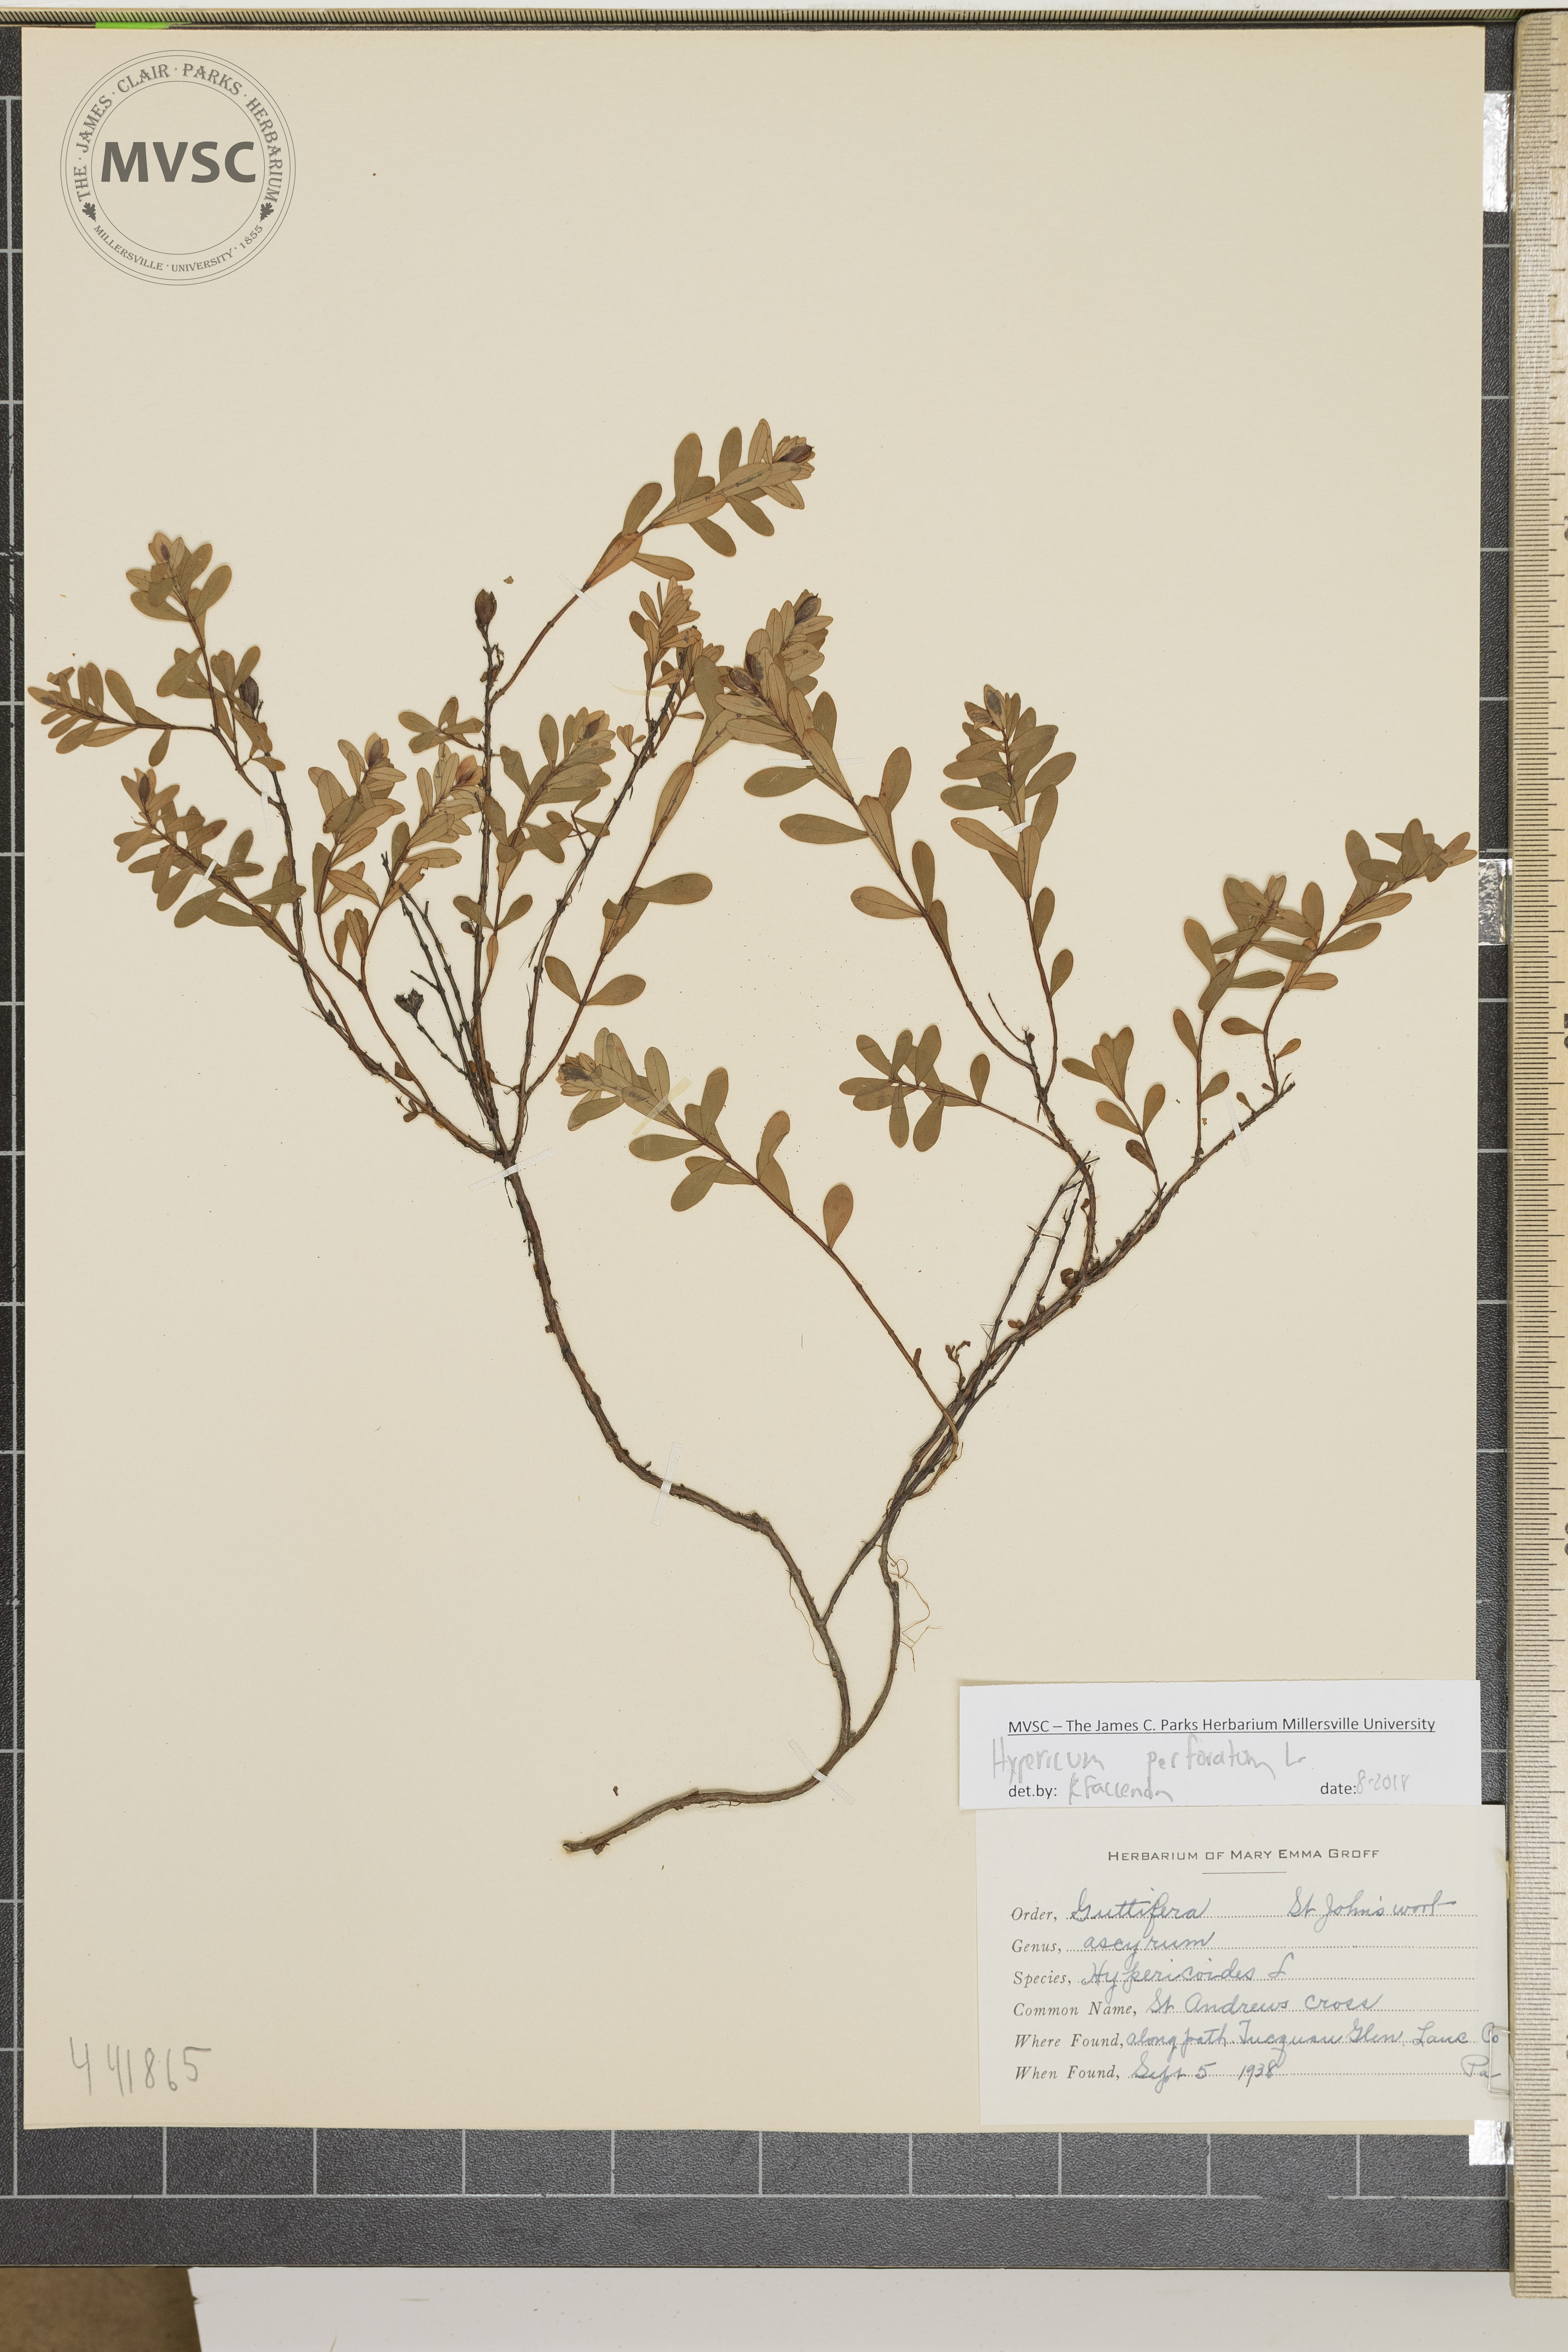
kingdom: Plantae
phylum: Tracheophyta
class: Magnoliopsida
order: Malpighiales
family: Hypericaceae
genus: Hypericum
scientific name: Hypericum perforatum
